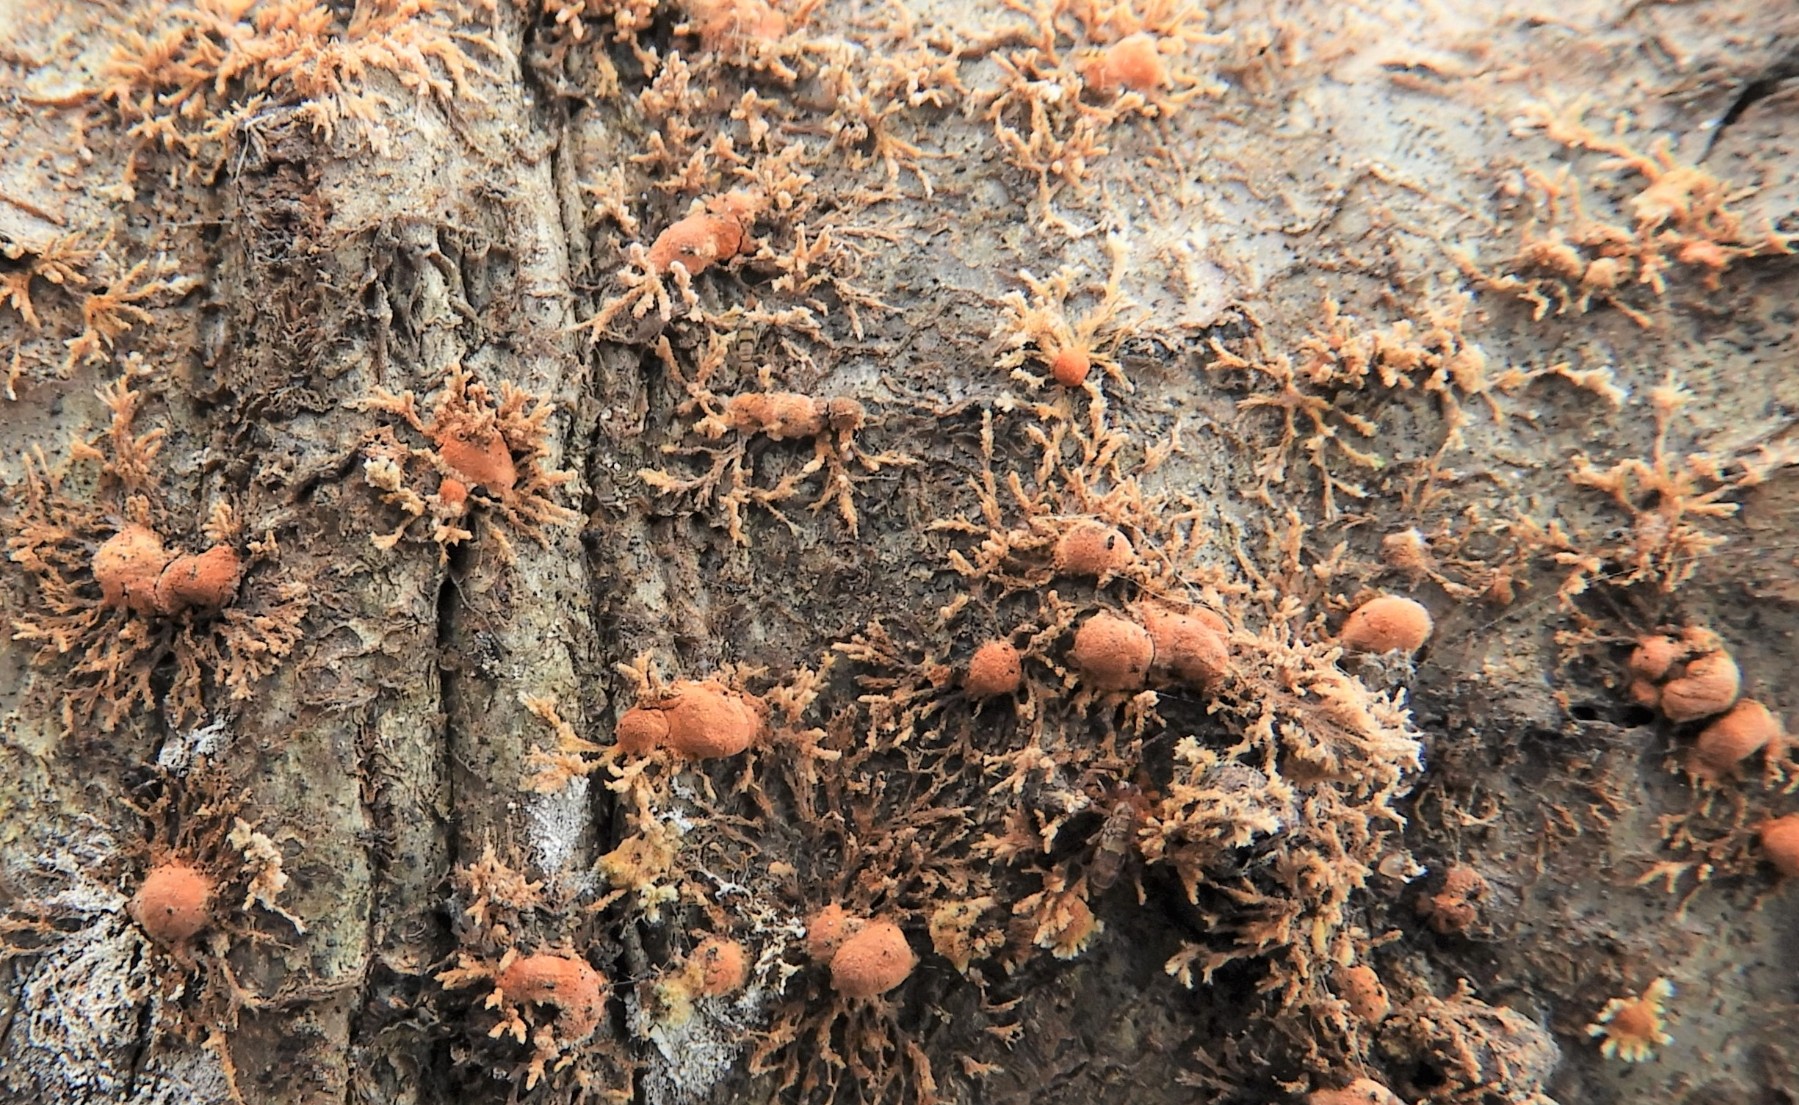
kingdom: Fungi
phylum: Ascomycota
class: Sordariomycetes
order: Xylariales
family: Hypoxylaceae
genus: Hypoxylon
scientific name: Hypoxylon howeanum
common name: halvkugleformet kulbær
